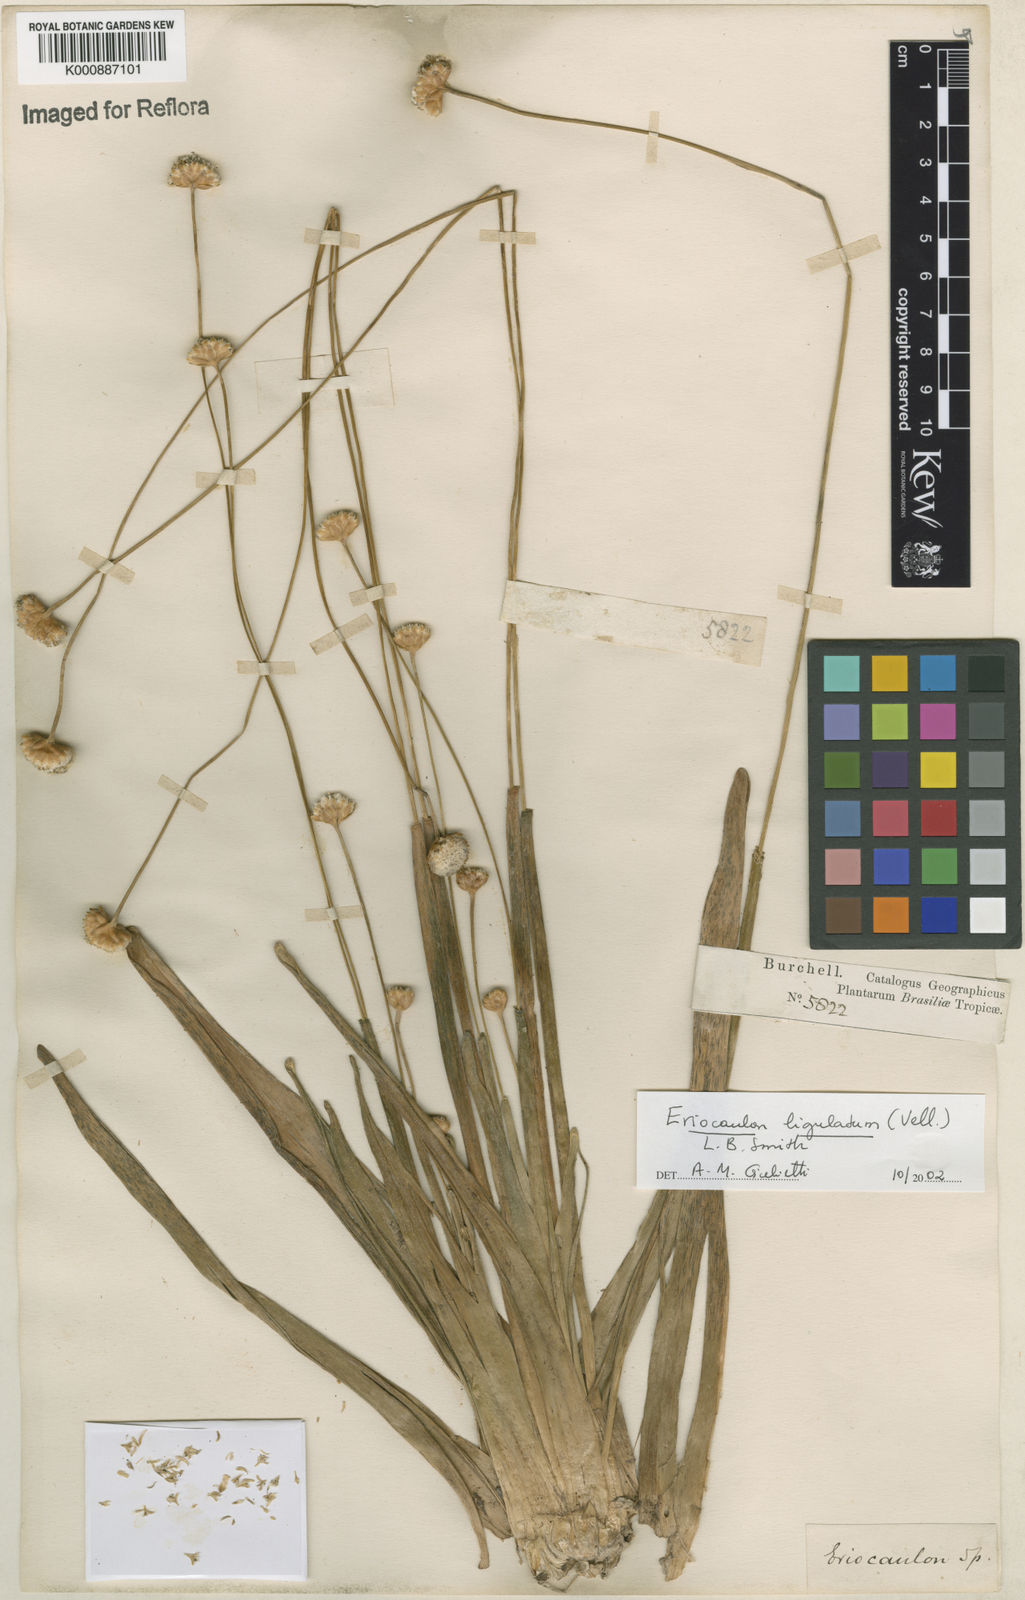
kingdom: Plantae
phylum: Tracheophyta
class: Liliopsida
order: Poales
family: Eriocaulaceae
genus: Eriocaulon
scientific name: Eriocaulon
